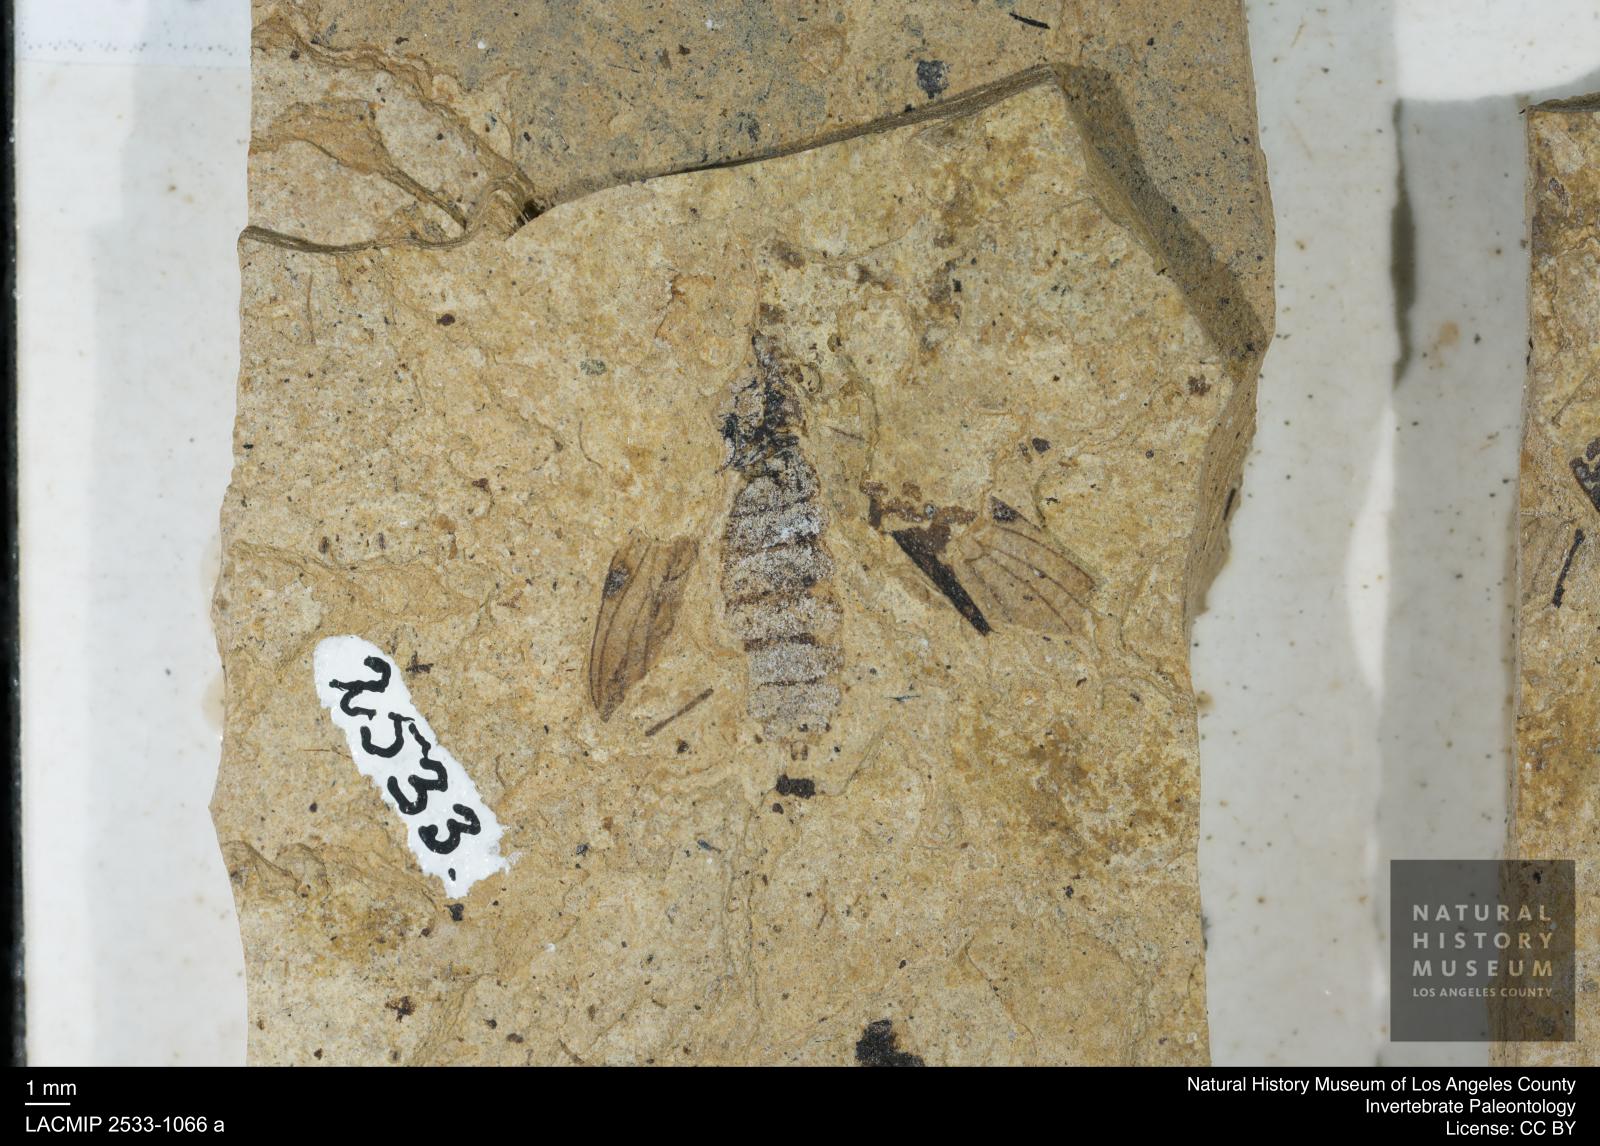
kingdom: Animalia
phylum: Arthropoda
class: Insecta
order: Diptera
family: Bibionidae
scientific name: Bibionidae
